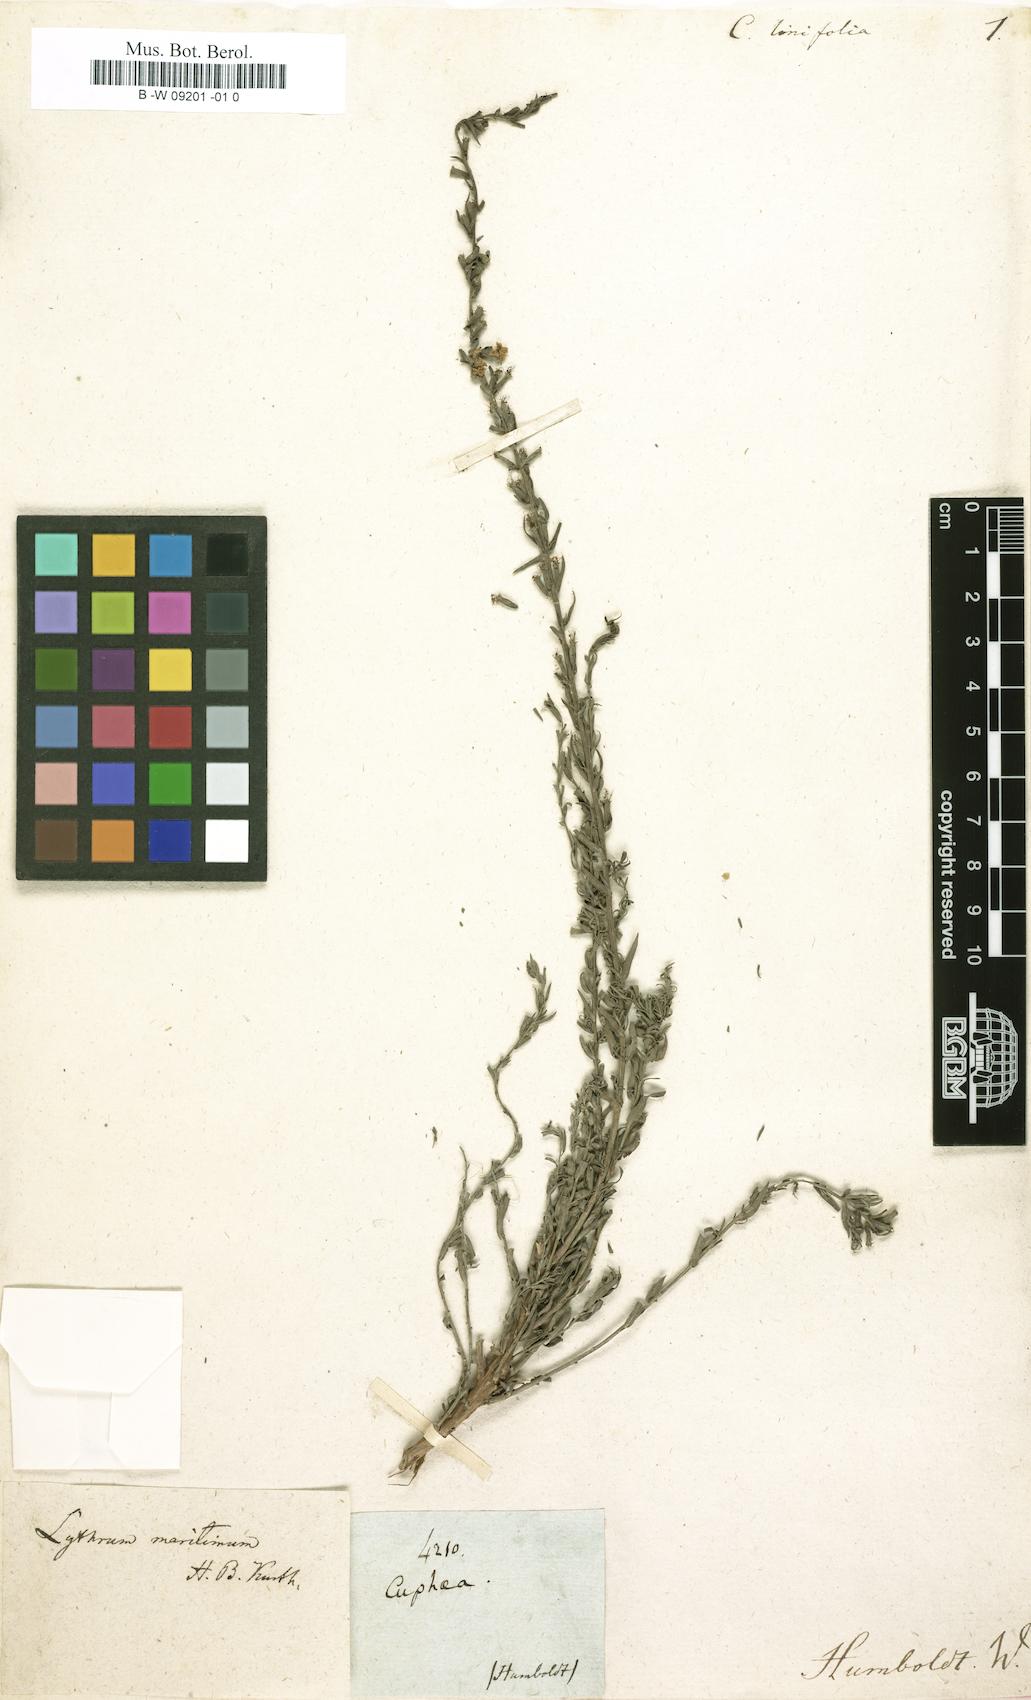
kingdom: Plantae
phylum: Tracheophyta
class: Magnoliopsida
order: Myrtales
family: Lythraceae
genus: Cuphea
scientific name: Cuphea linifolia
